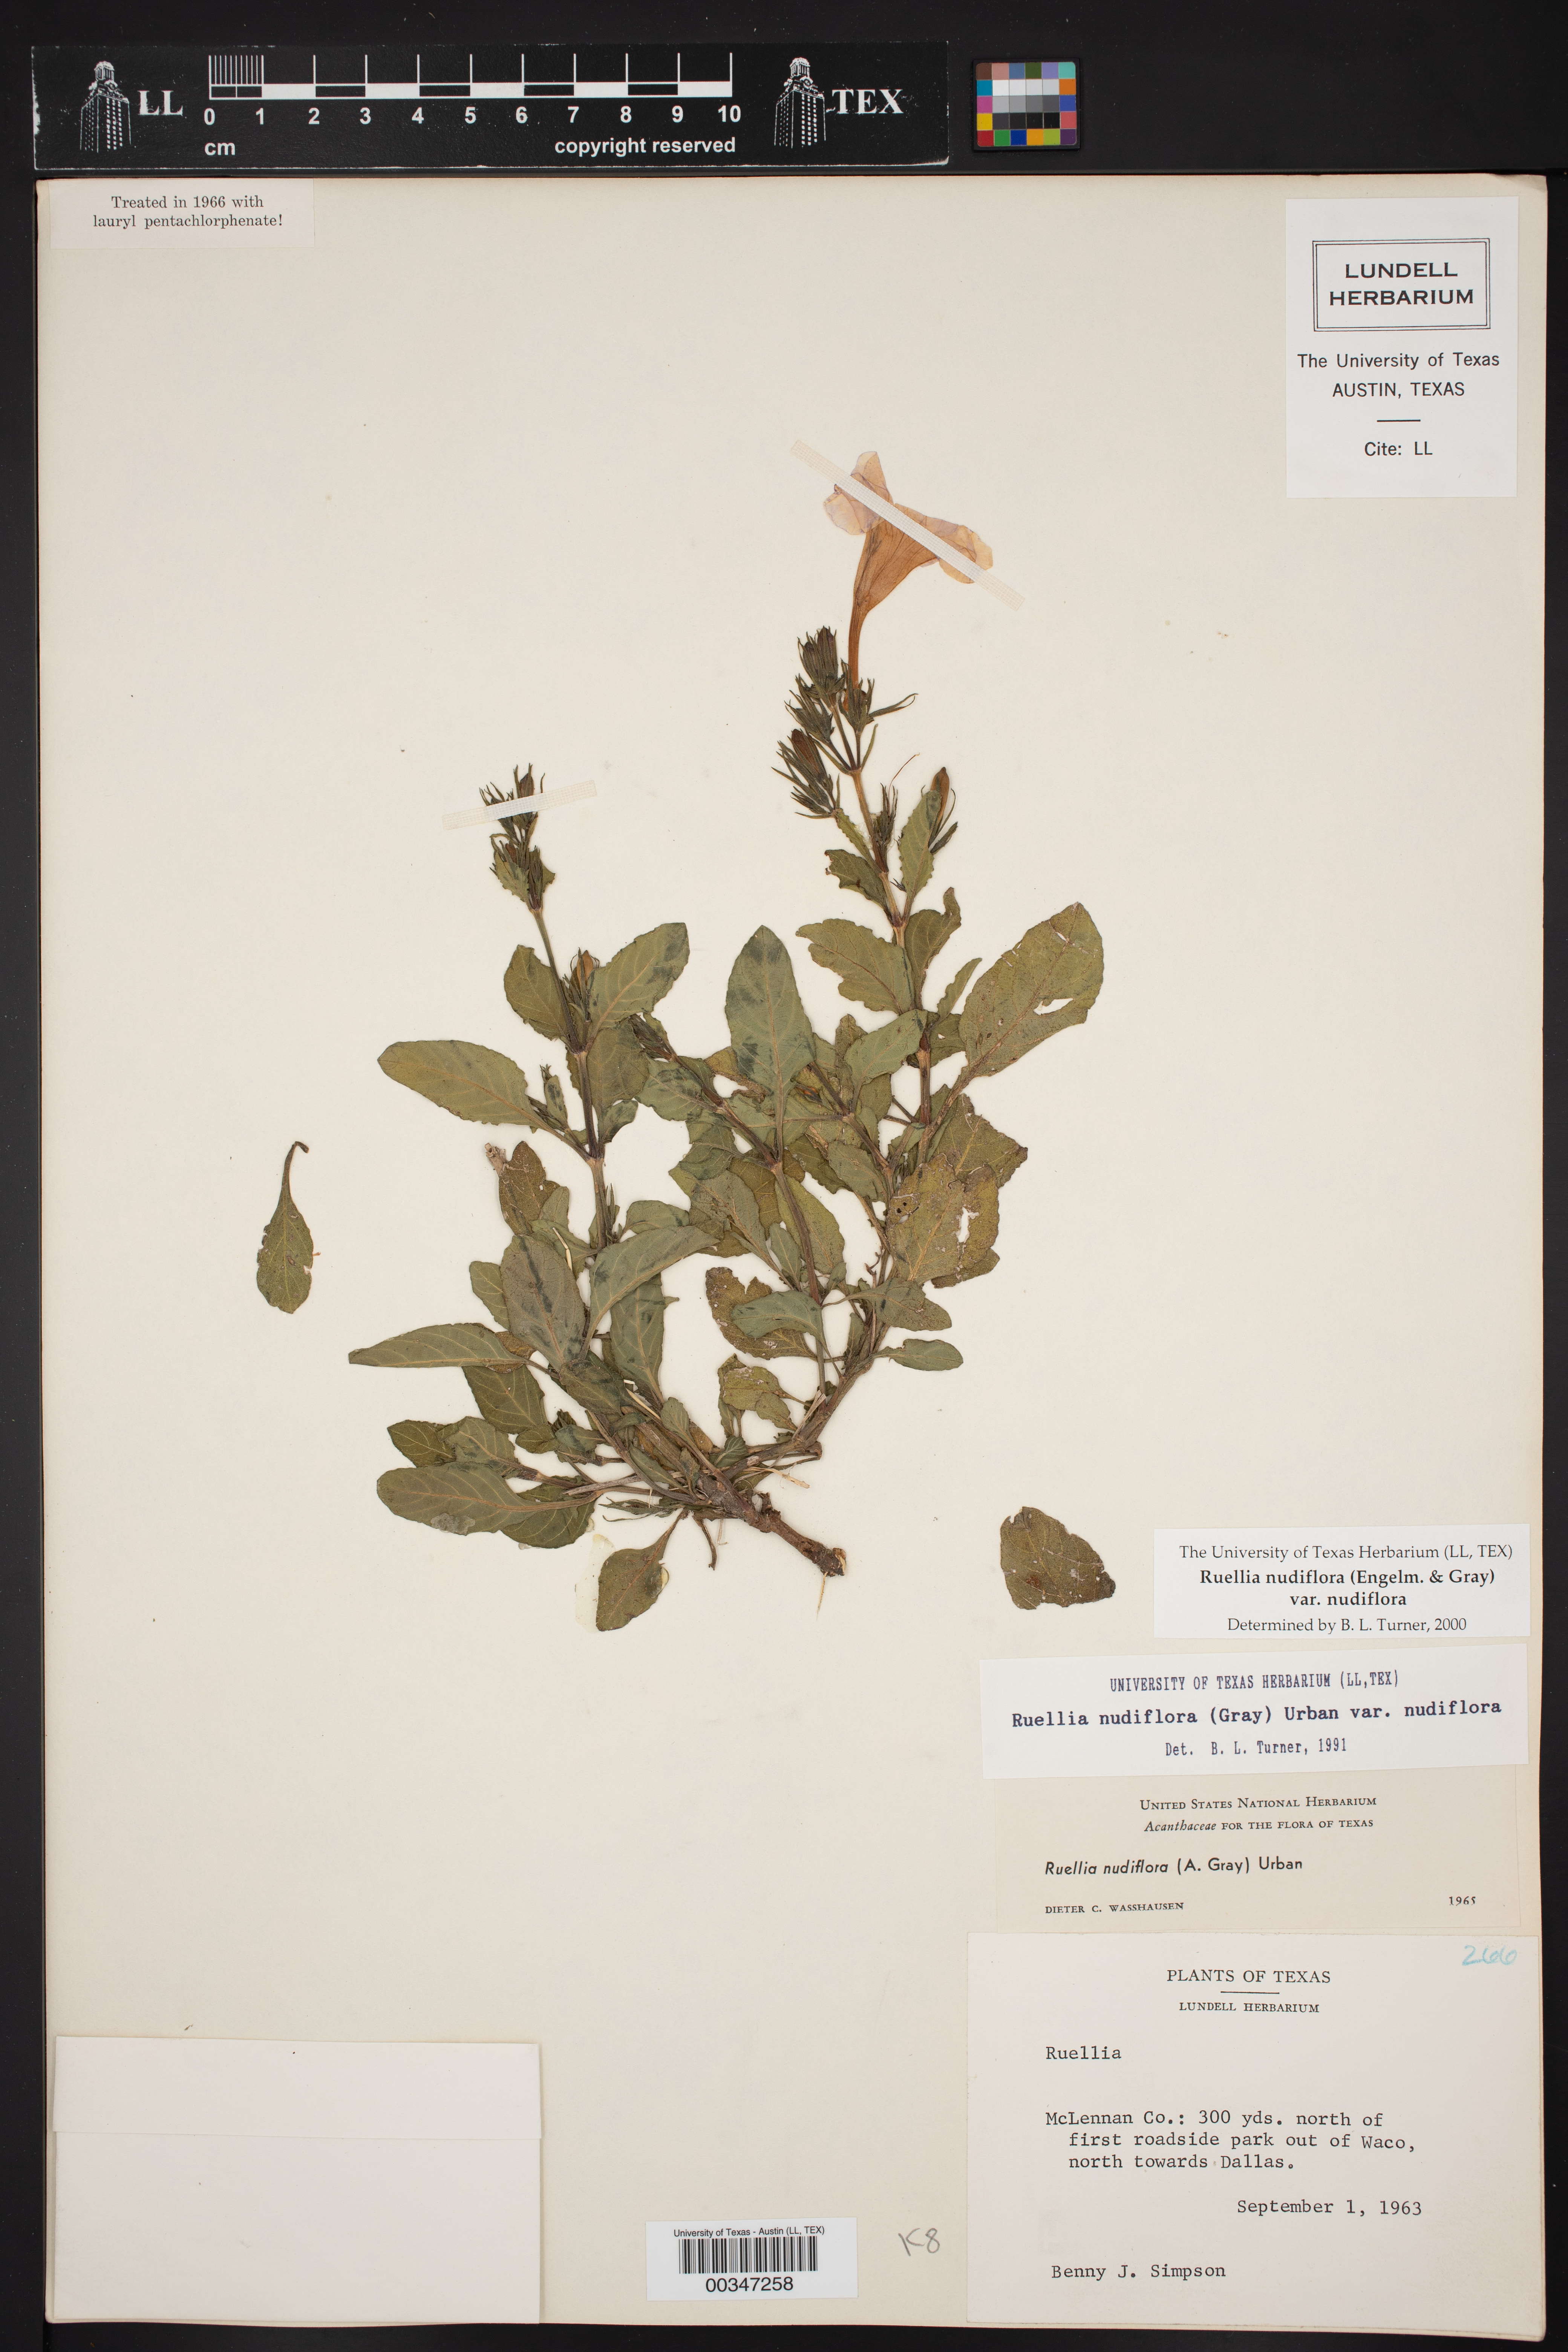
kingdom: Plantae
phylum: Tracheophyta
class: Magnoliopsida
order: Lamiales
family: Acanthaceae
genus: Ruellia
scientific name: Ruellia ciliatiflora
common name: Hairyflower wild petunia
